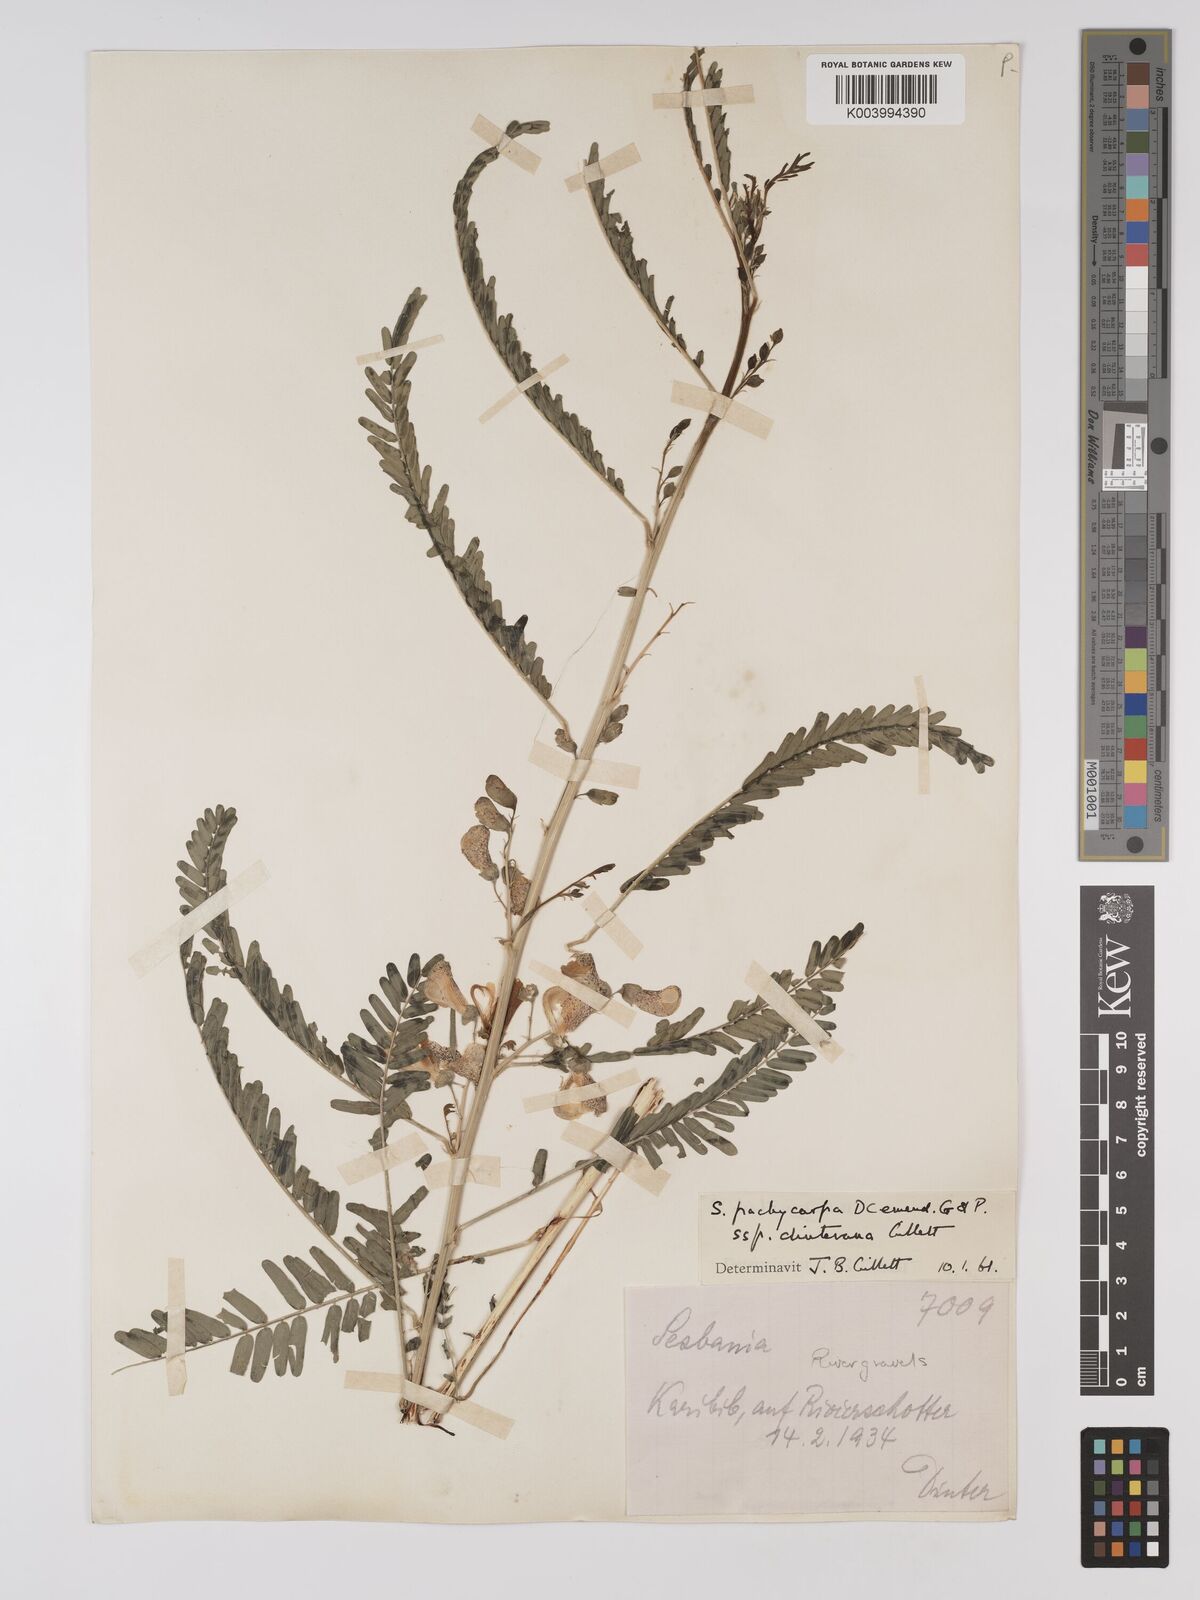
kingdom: Plantae
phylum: Tracheophyta
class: Magnoliopsida
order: Fabales
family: Fabaceae
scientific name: Fabaceae
